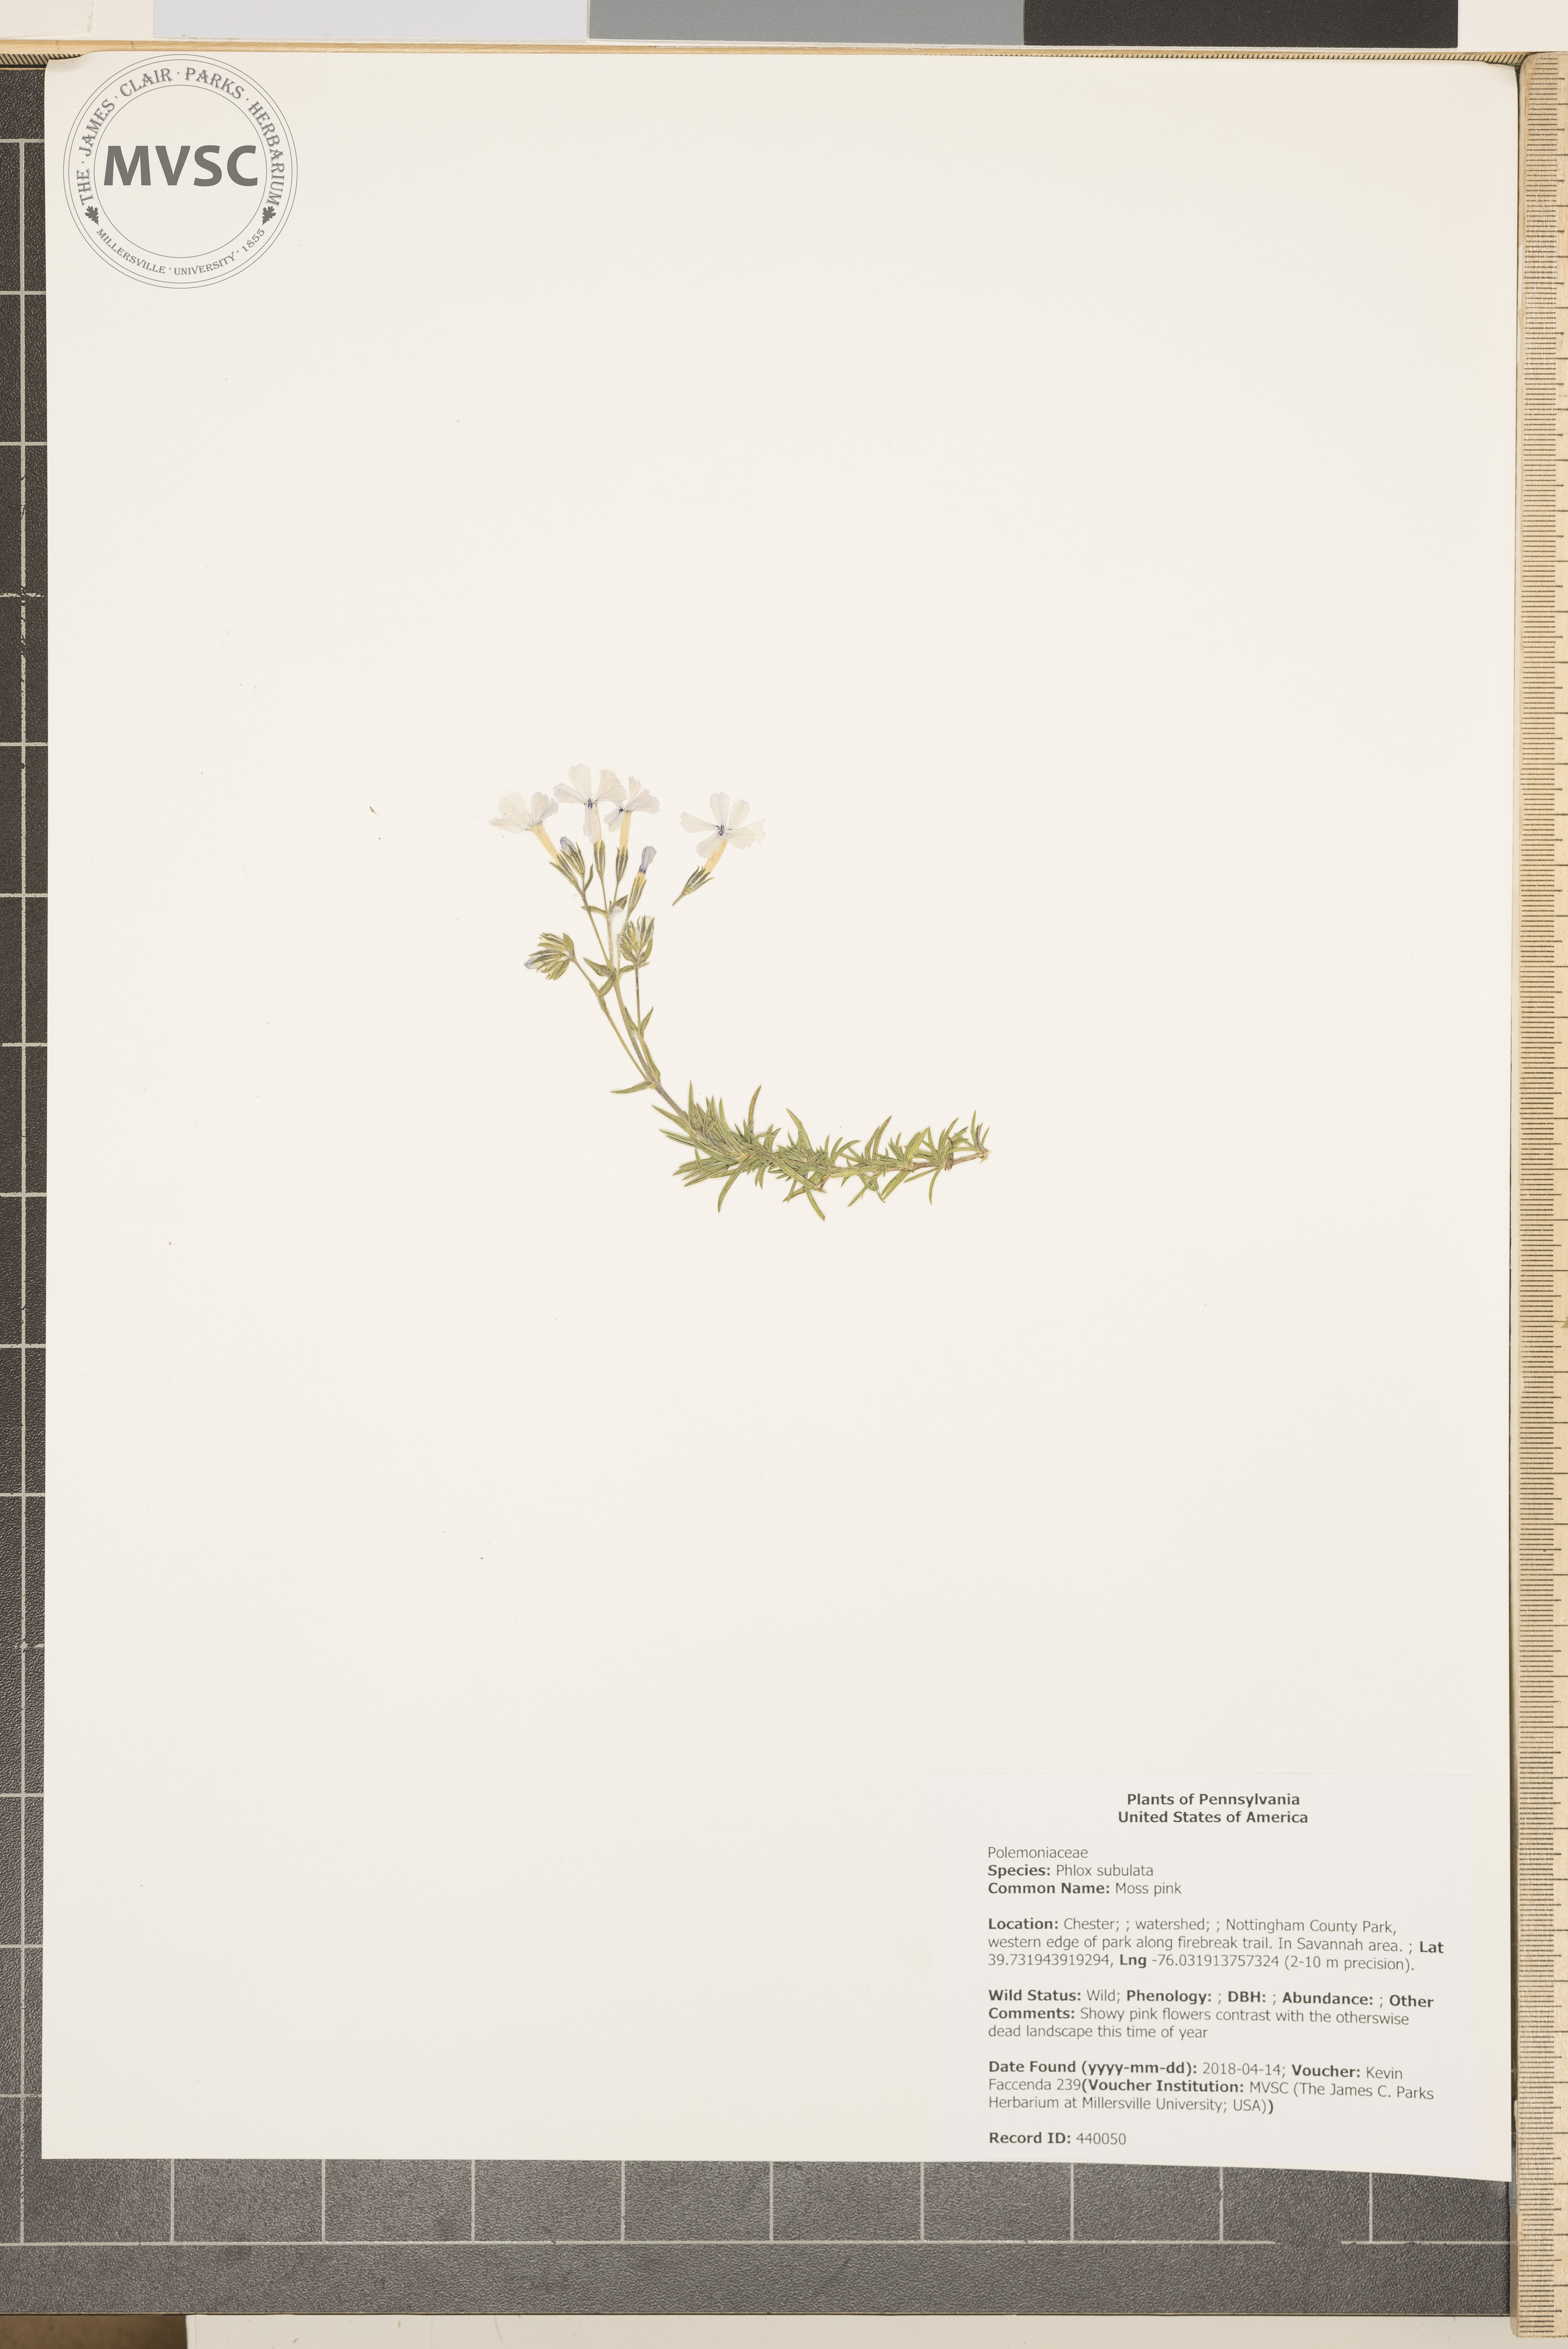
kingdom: Plantae
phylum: Tracheophyta
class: Magnoliopsida
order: Ericales
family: Polemoniaceae
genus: Phlox
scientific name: Phlox subulata
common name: Moss pink
